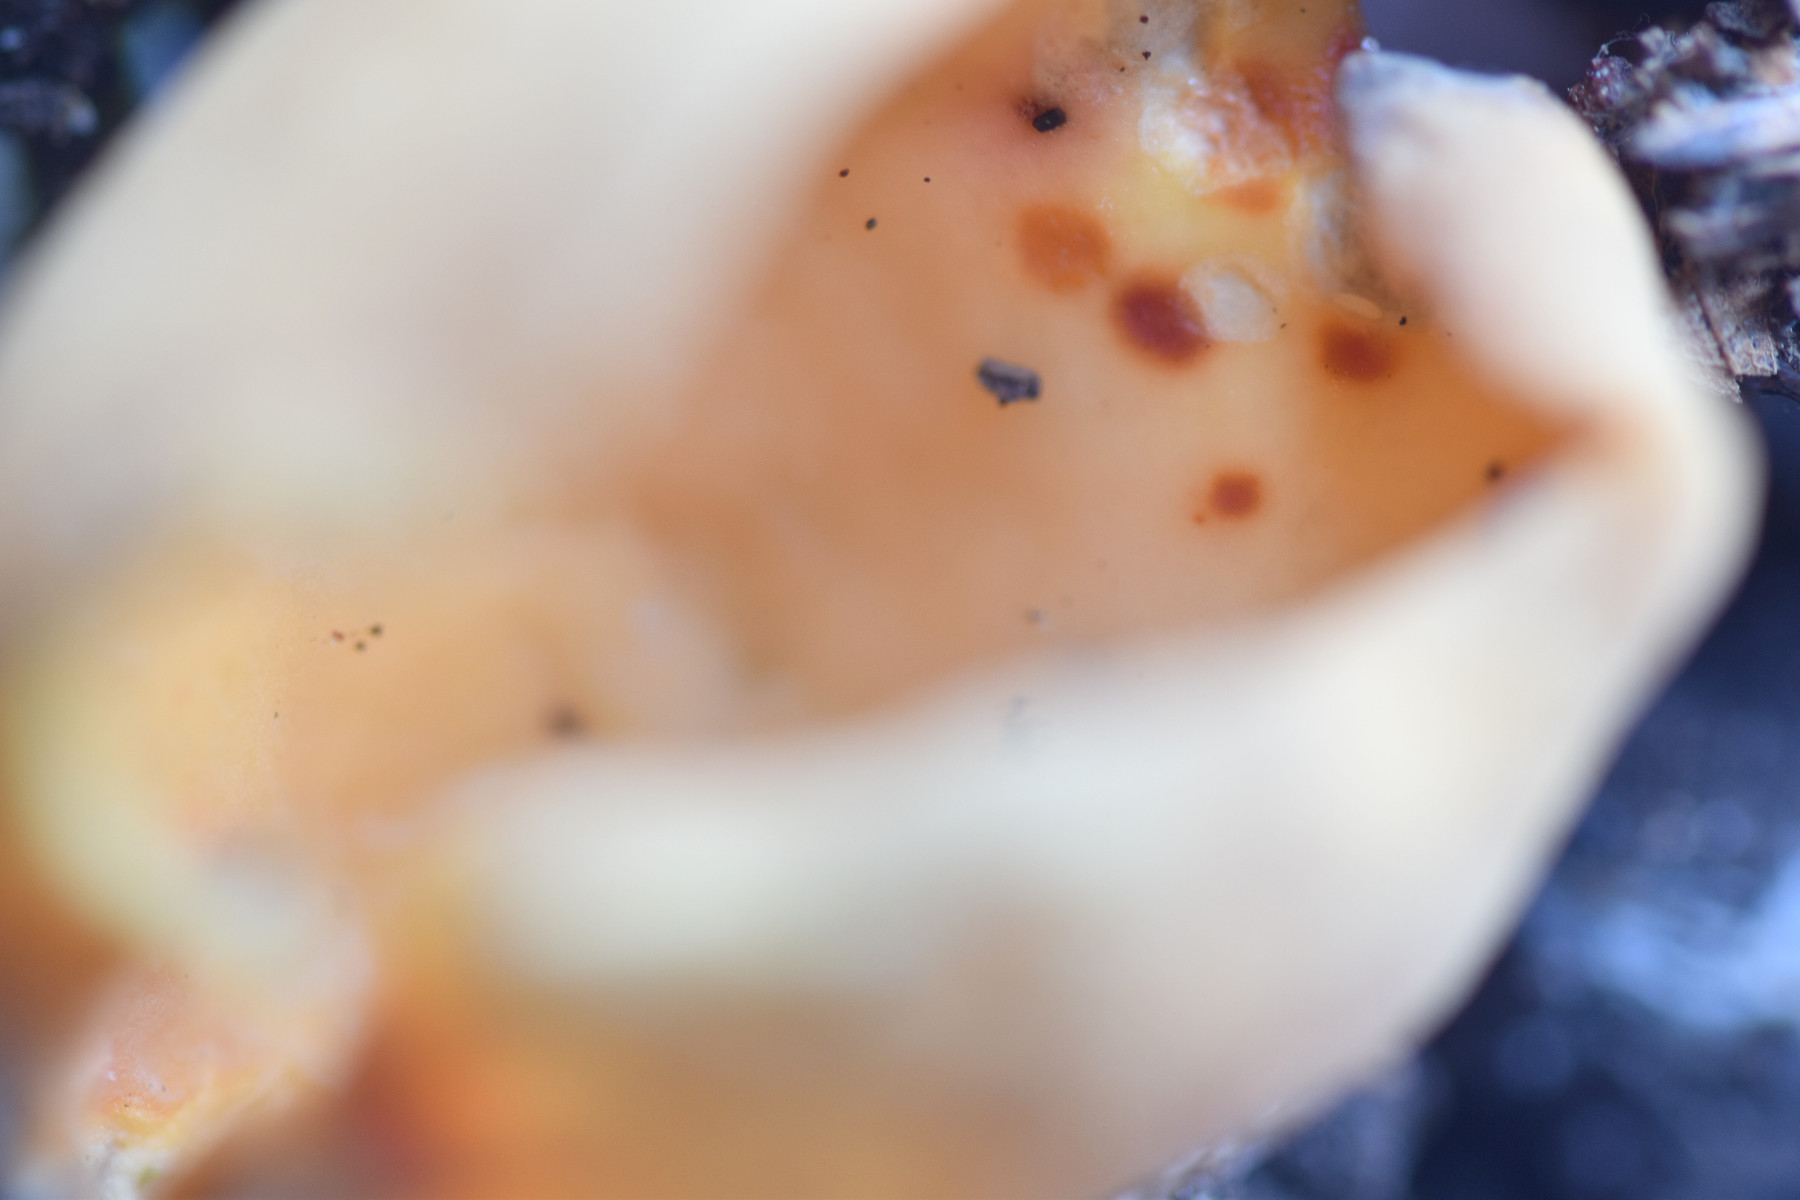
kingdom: Fungi
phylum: Ascomycota
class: Pezizomycetes
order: Pezizales
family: Otideaceae
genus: Otidea
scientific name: Otidea onotica
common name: æsel-ørebæger
